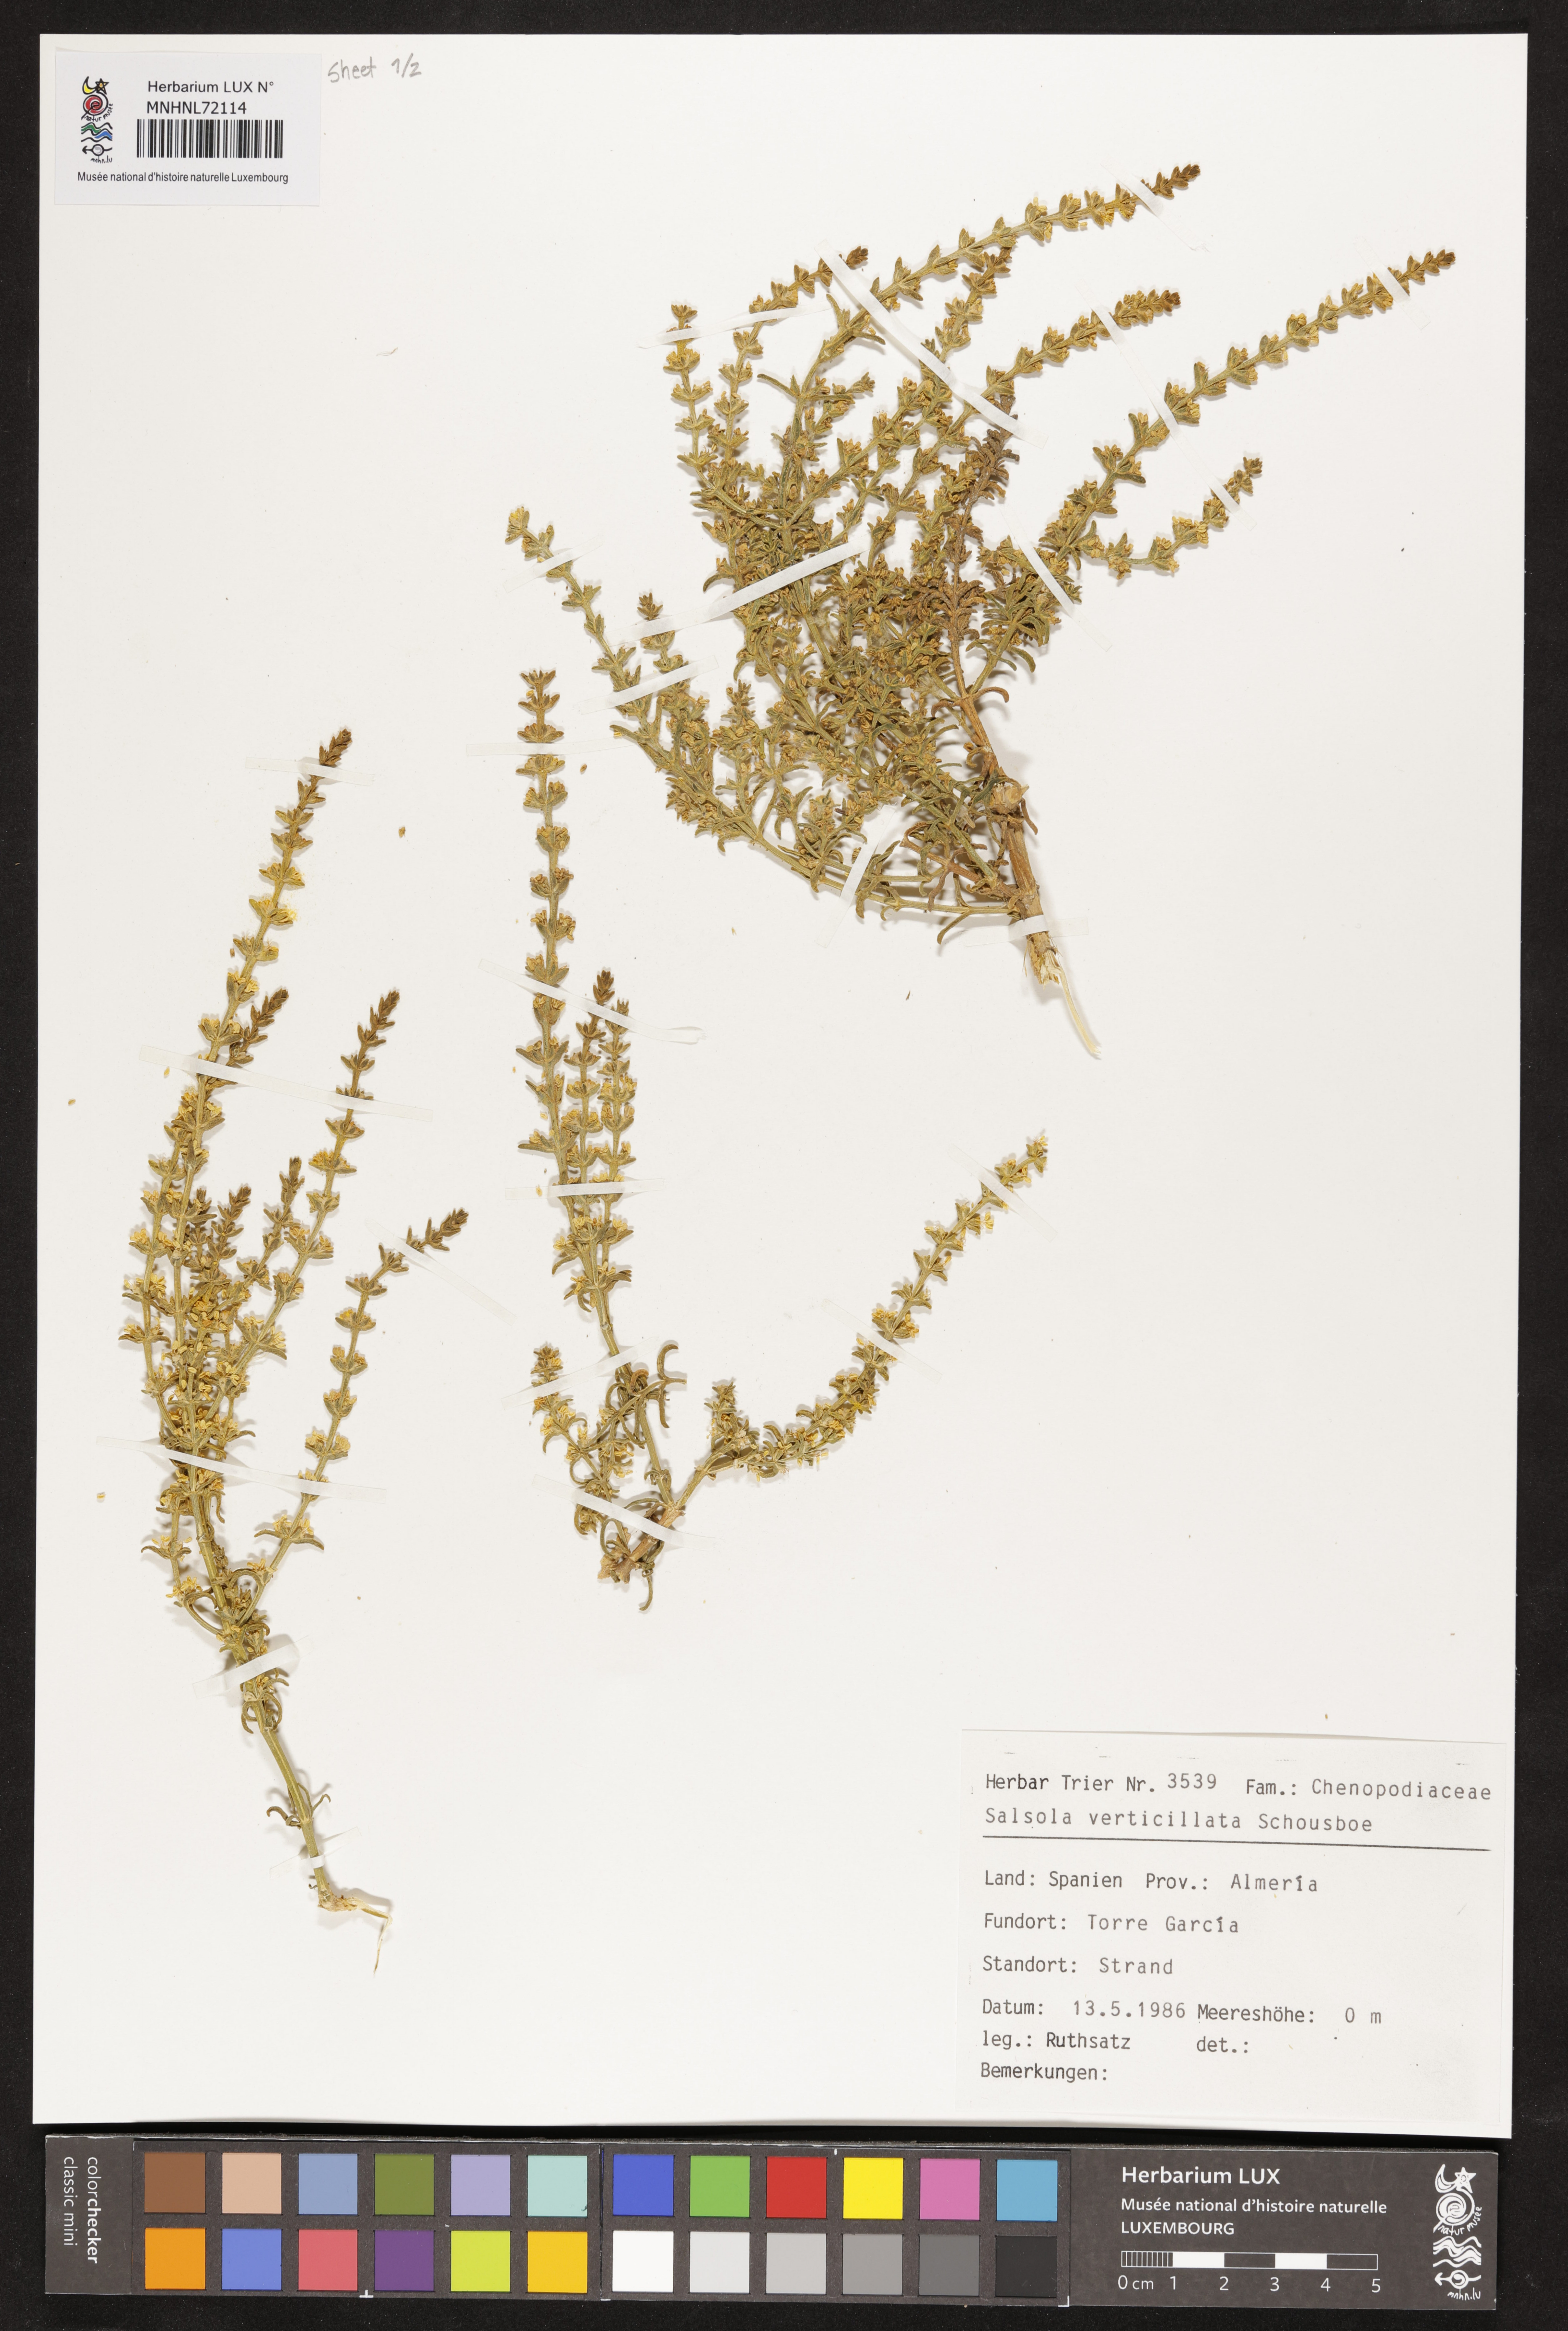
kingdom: Plantae
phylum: Tracheophyta
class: Magnoliopsida
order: Caryophyllales
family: Amaranthaceae
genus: Salsola
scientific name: Salsola verticillata
